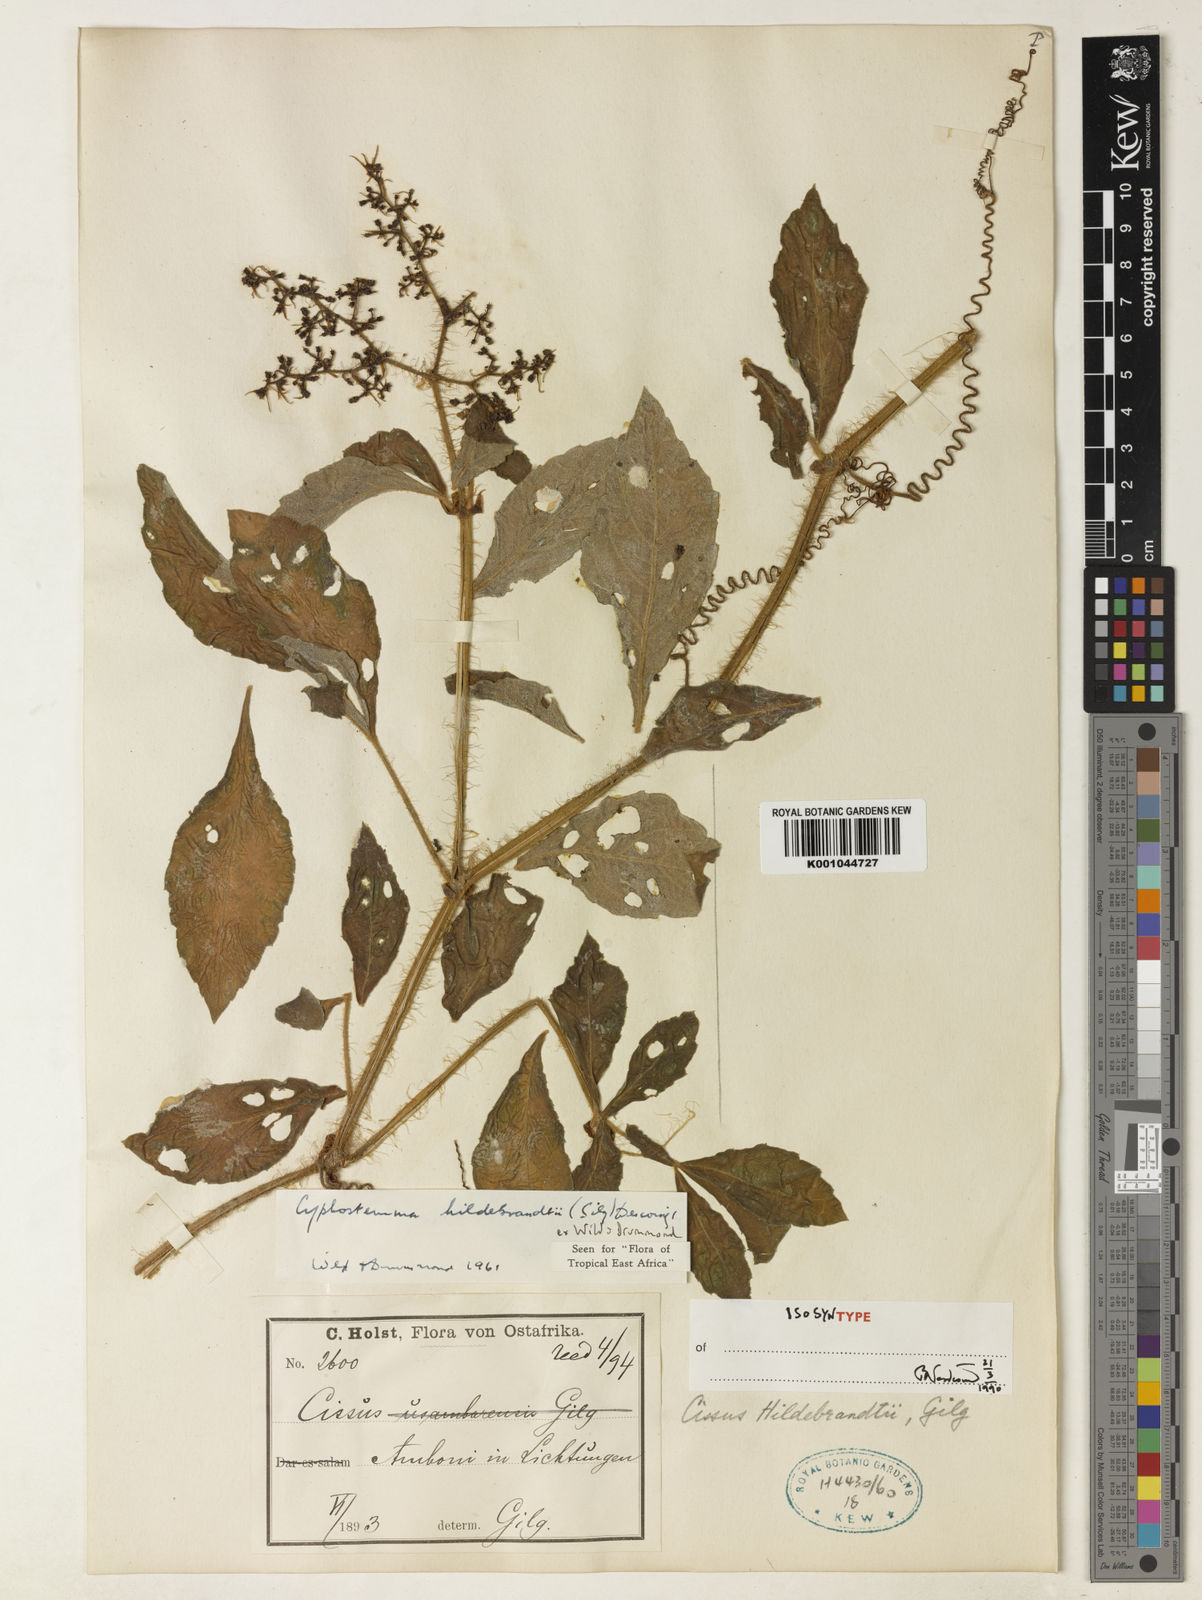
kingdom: Plantae
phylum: Tracheophyta
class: Magnoliopsida
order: Vitales
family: Vitaceae
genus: Cyphostemma
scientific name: Cyphostemma
